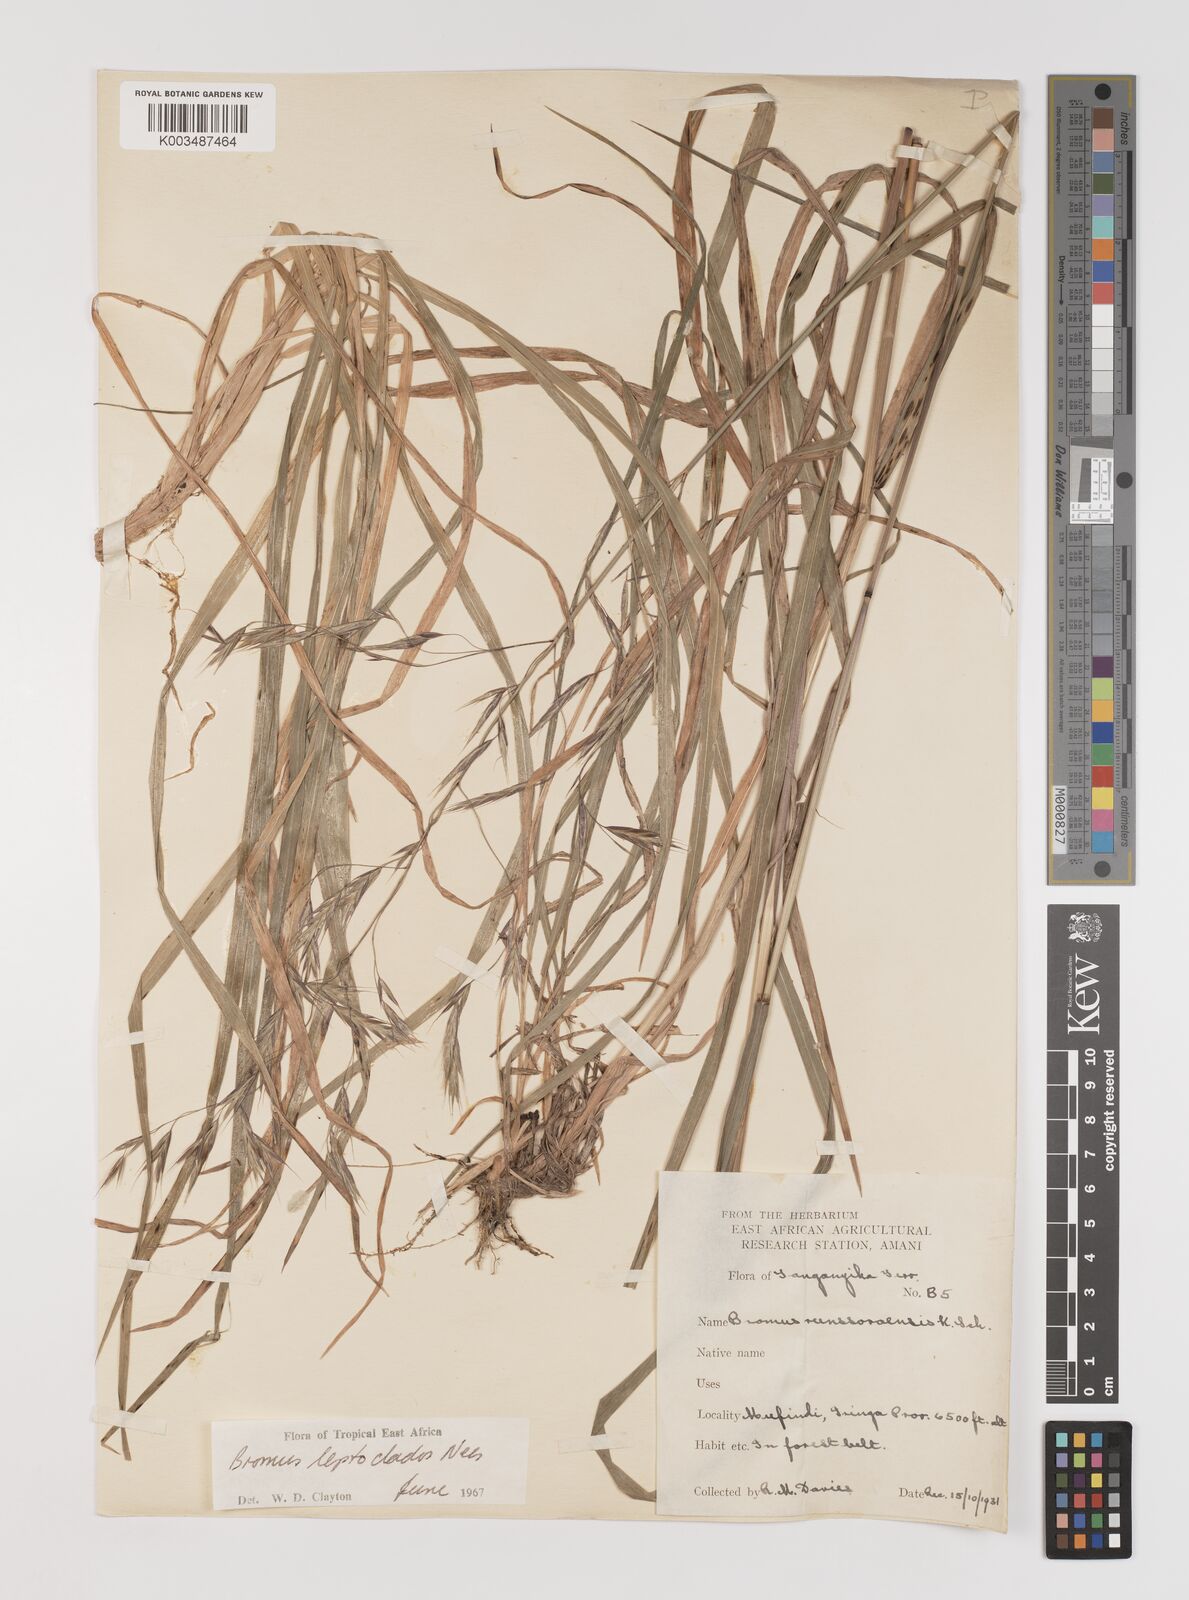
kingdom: Plantae
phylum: Tracheophyta
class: Liliopsida
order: Poales
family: Poaceae
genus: Bromus
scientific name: Bromus leptoclados
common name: Mountain bromegrass
